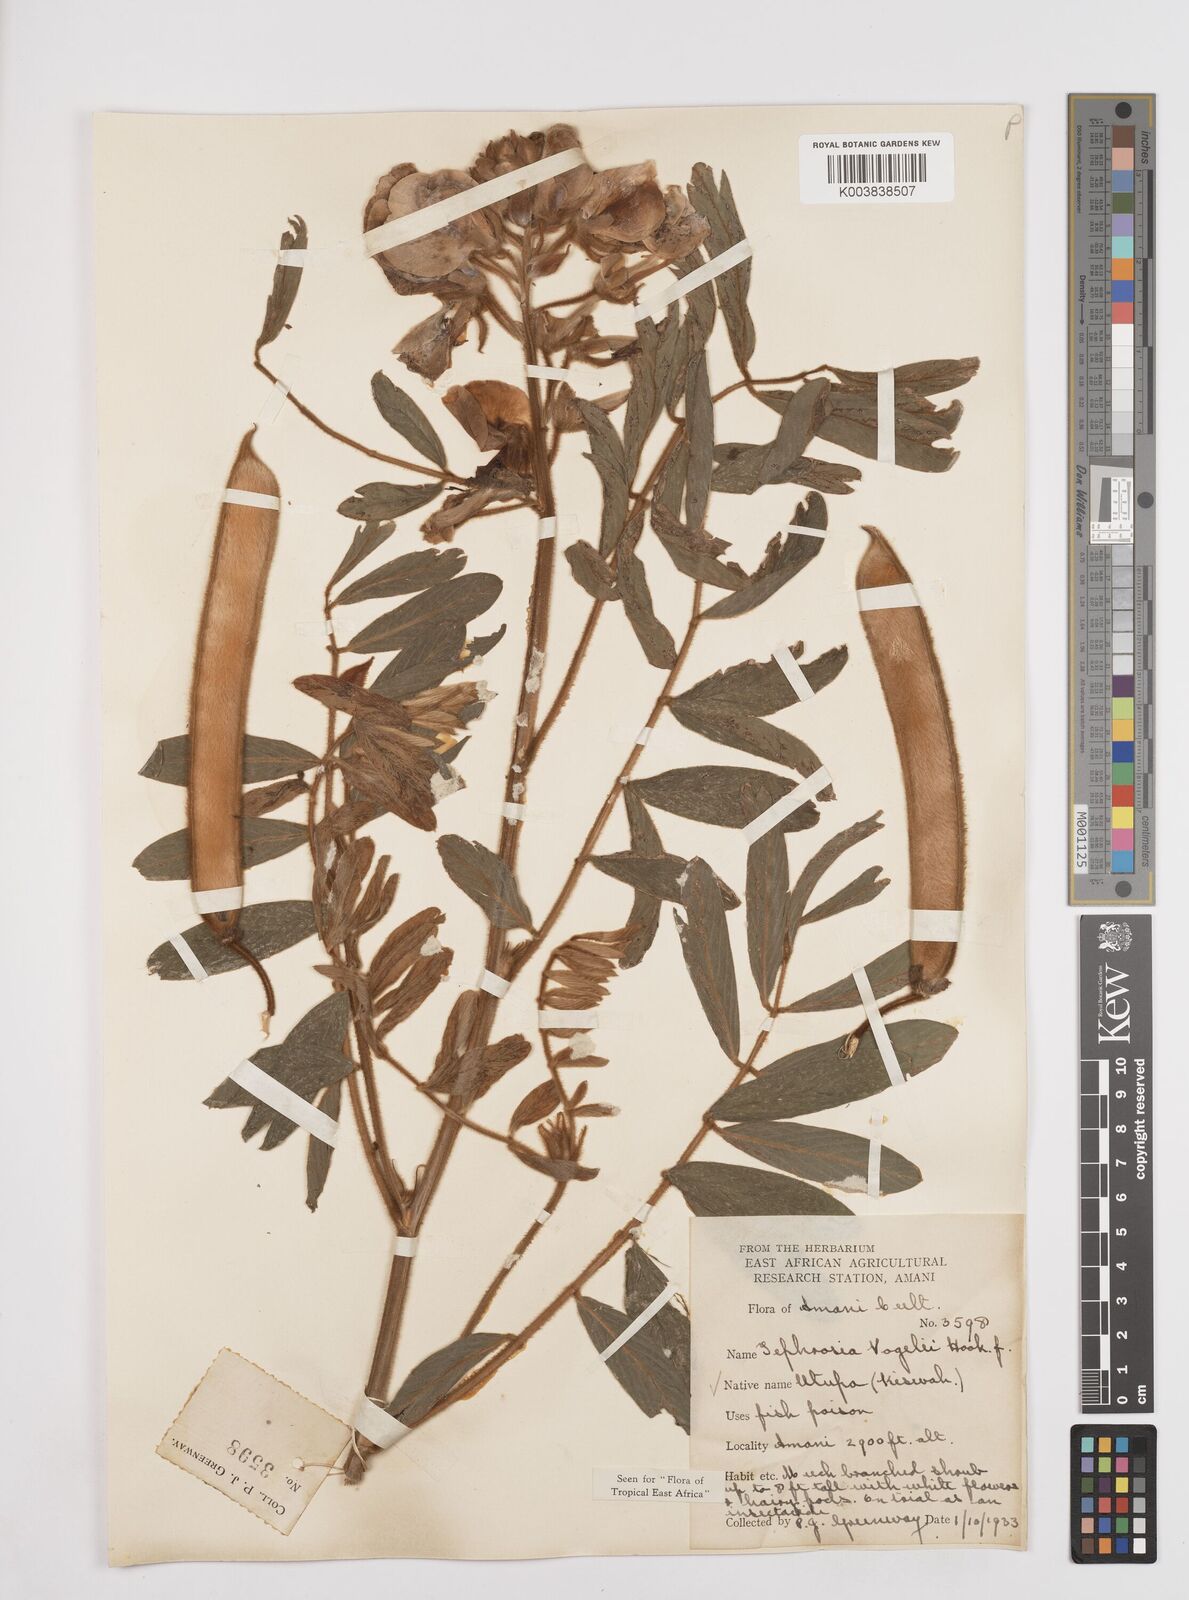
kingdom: Plantae
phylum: Tracheophyta
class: Magnoliopsida
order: Fabales
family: Fabaceae
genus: Tephrosia
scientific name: Tephrosia vogelii
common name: Vogel tephrosia
